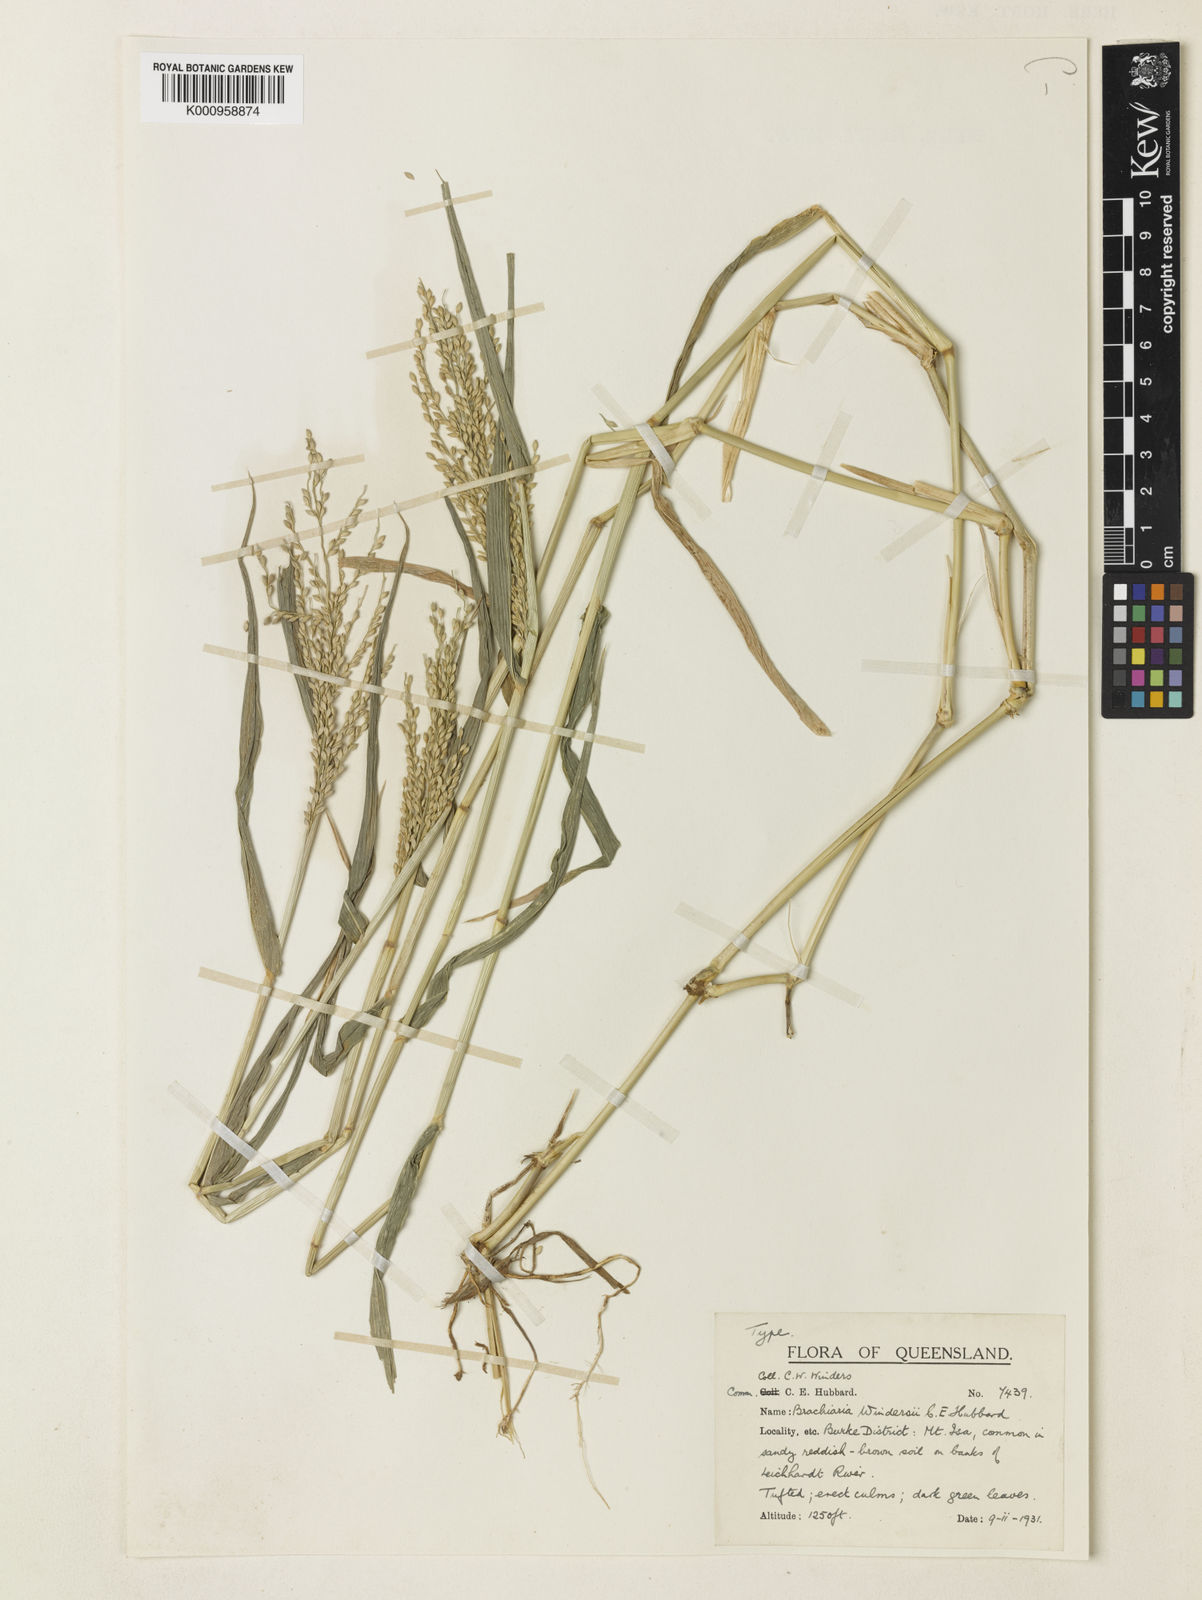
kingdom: Plantae
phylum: Tracheophyta
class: Liliopsida
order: Poales
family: Poaceae
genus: Urochloa
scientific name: Urochloa whiteana
